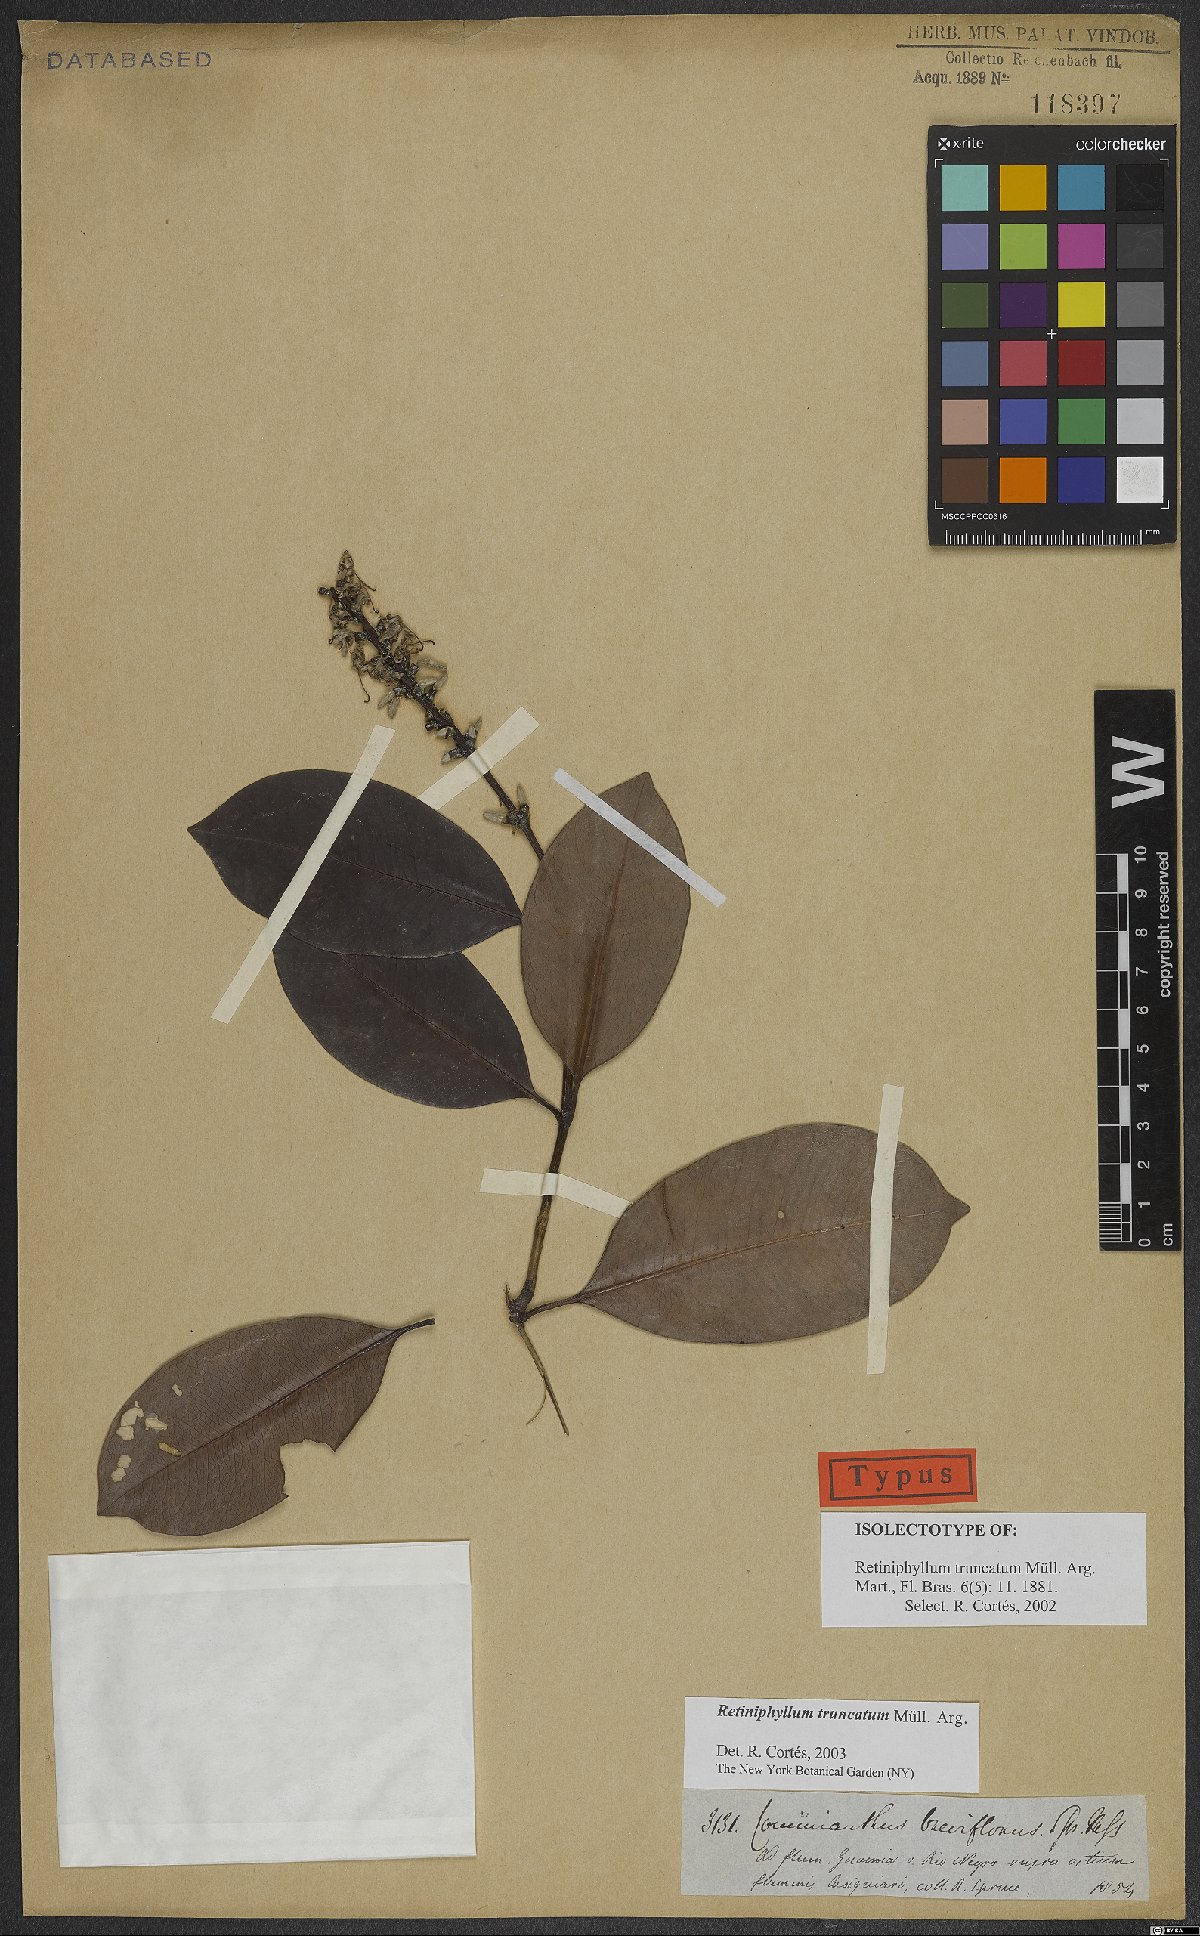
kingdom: Plantae
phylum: Tracheophyta
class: Magnoliopsida
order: Gentianales
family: Rubiaceae
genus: Retiniphyllum
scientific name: Retiniphyllum truncatum
